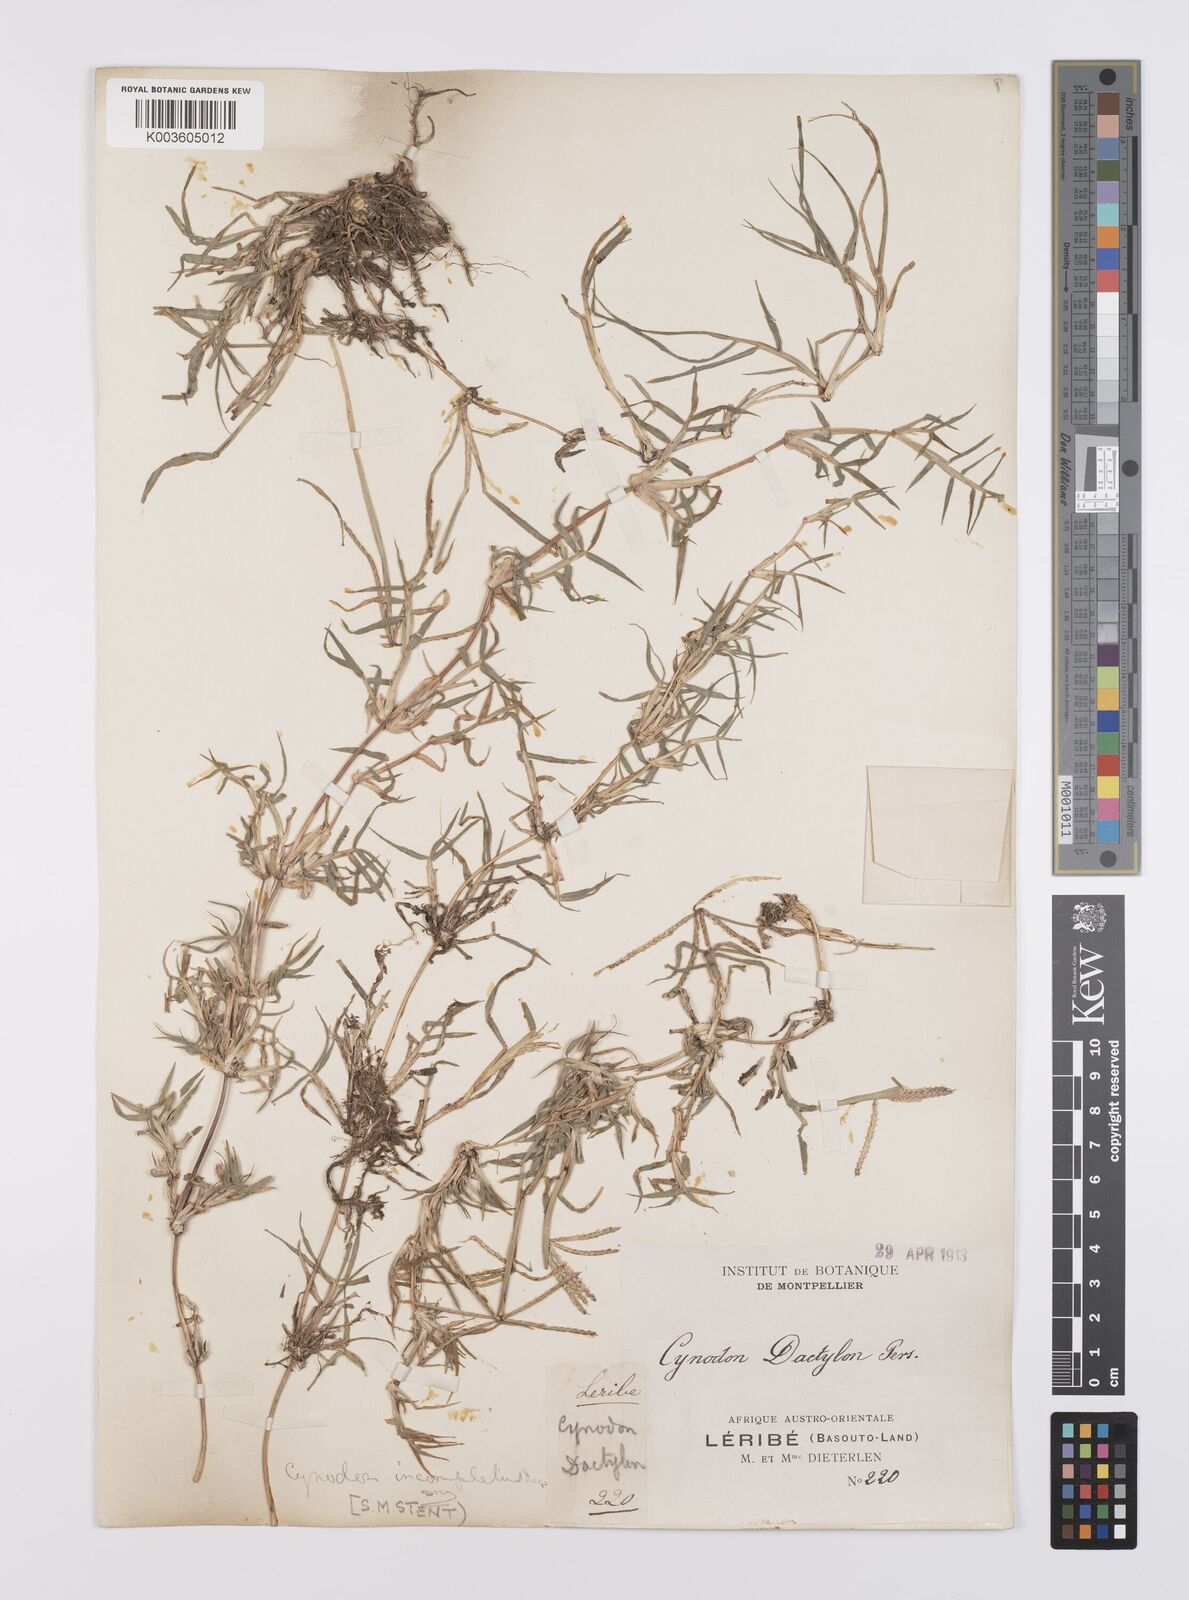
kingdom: Plantae
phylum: Tracheophyta
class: Liliopsida
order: Poales
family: Poaceae
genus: Cynodon
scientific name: Cynodon incompletus
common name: African bermuda-grass
